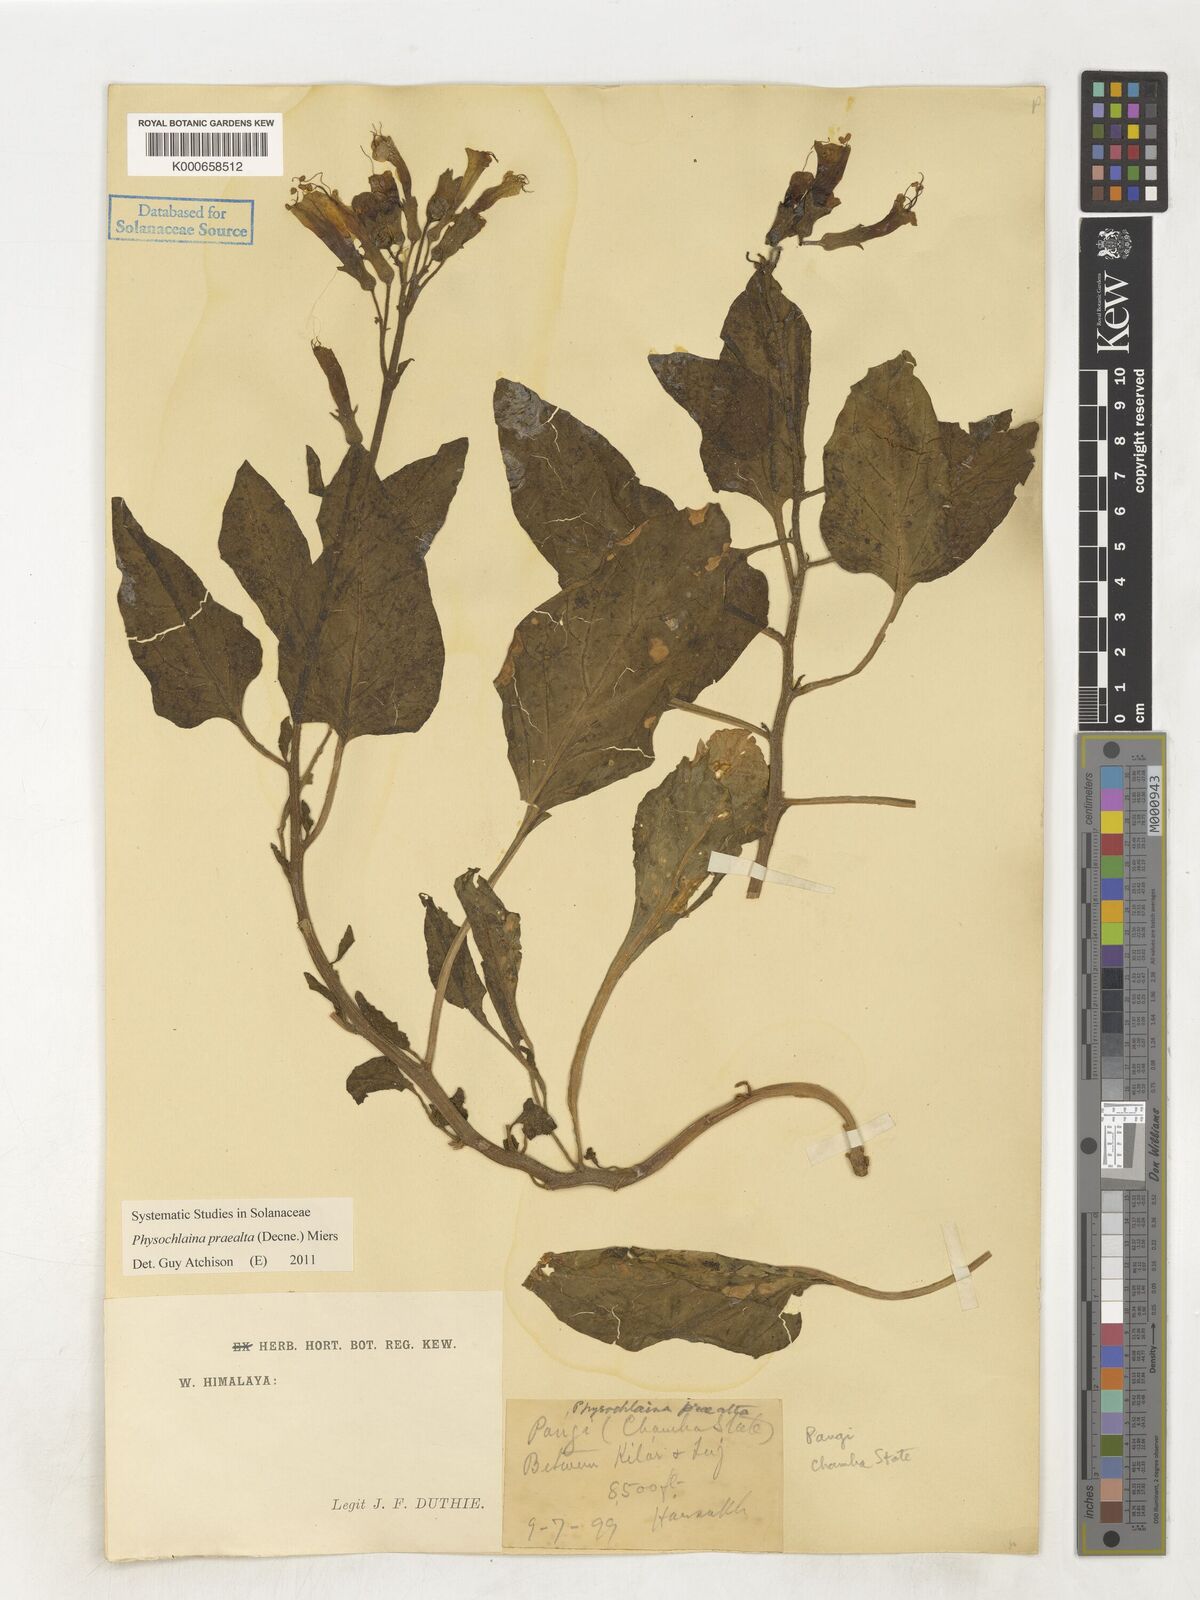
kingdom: Plantae
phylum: Tracheophyta
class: Magnoliopsida
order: Solanales
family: Solanaceae
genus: Physochlaina
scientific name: Physochlaina praealta
